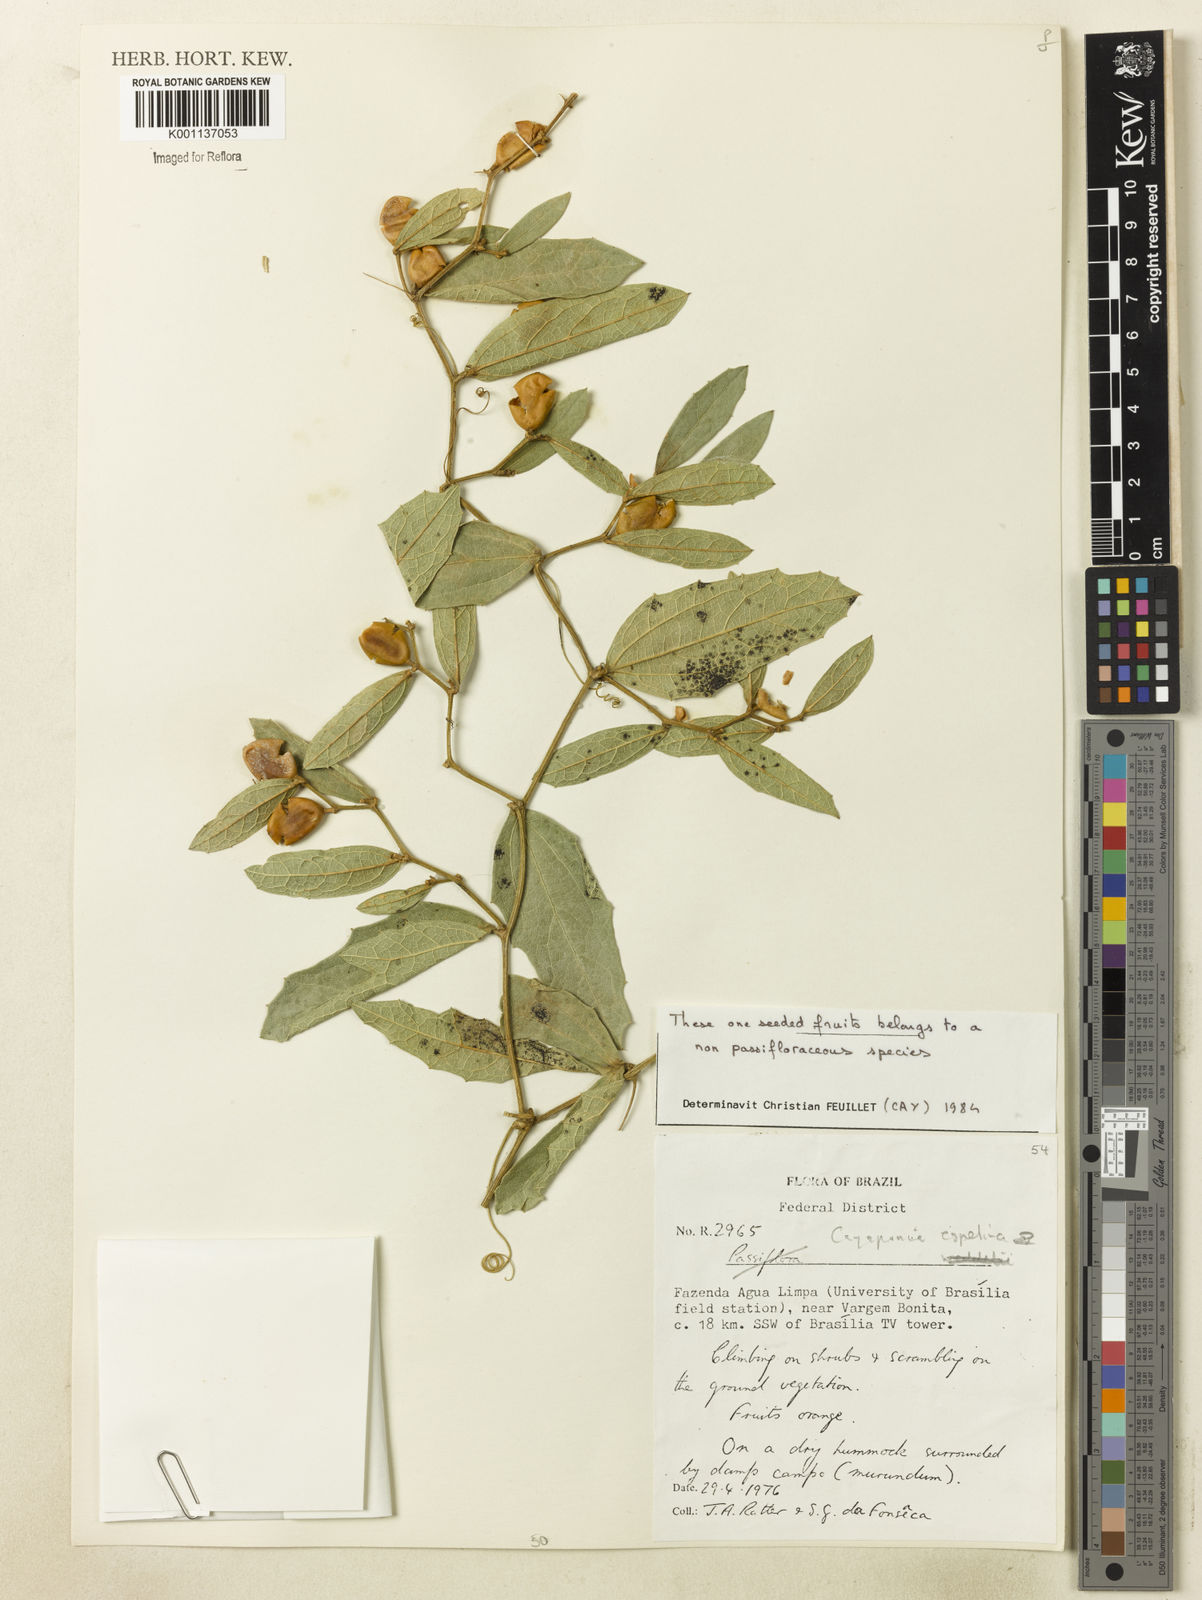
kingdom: Plantae
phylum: Tracheophyta
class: Magnoliopsida
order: Cucurbitales
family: Cucurbitaceae
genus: Cayaponia
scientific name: Cayaponia espelina
